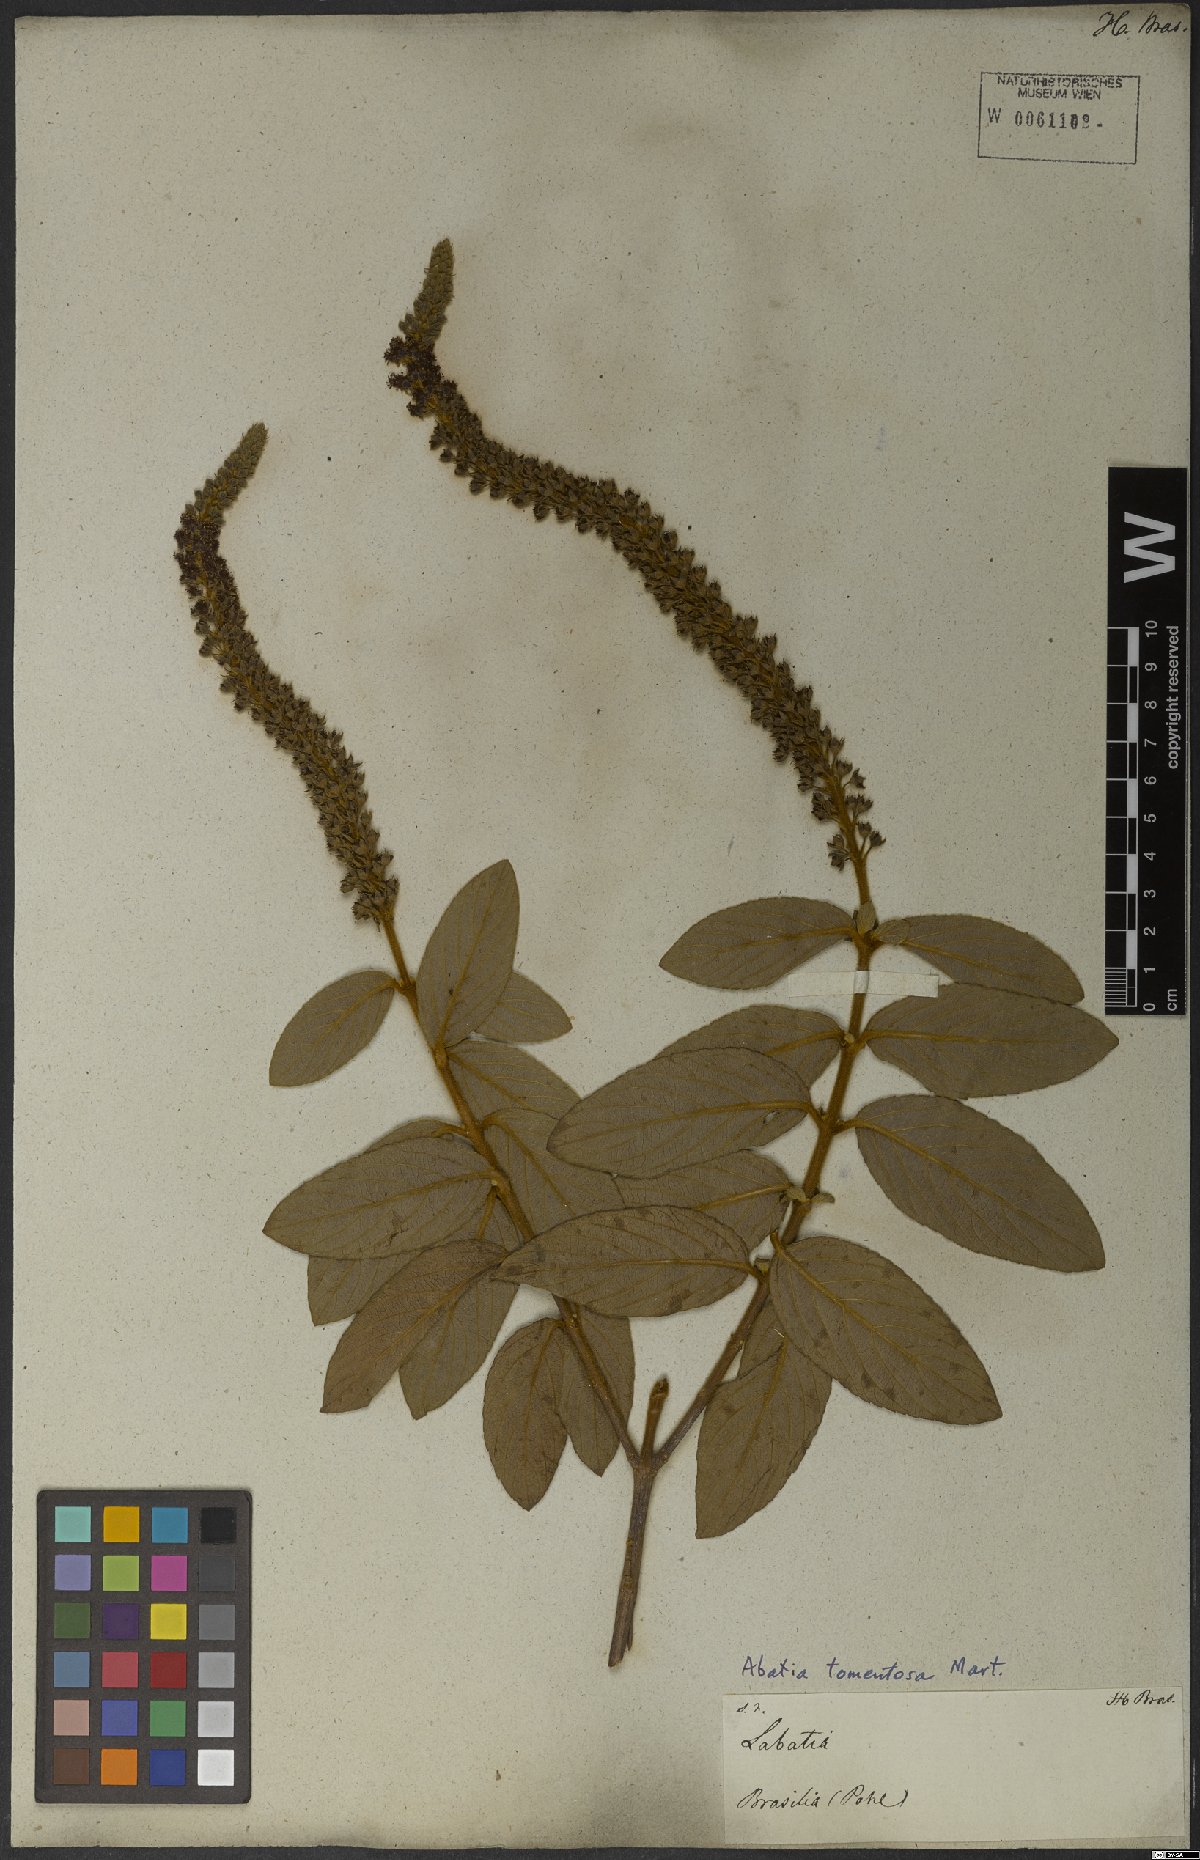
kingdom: Plantae
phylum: Tracheophyta
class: Magnoliopsida
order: Malpighiales
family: Salicaceae
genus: Abatia
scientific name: Abatia americana
